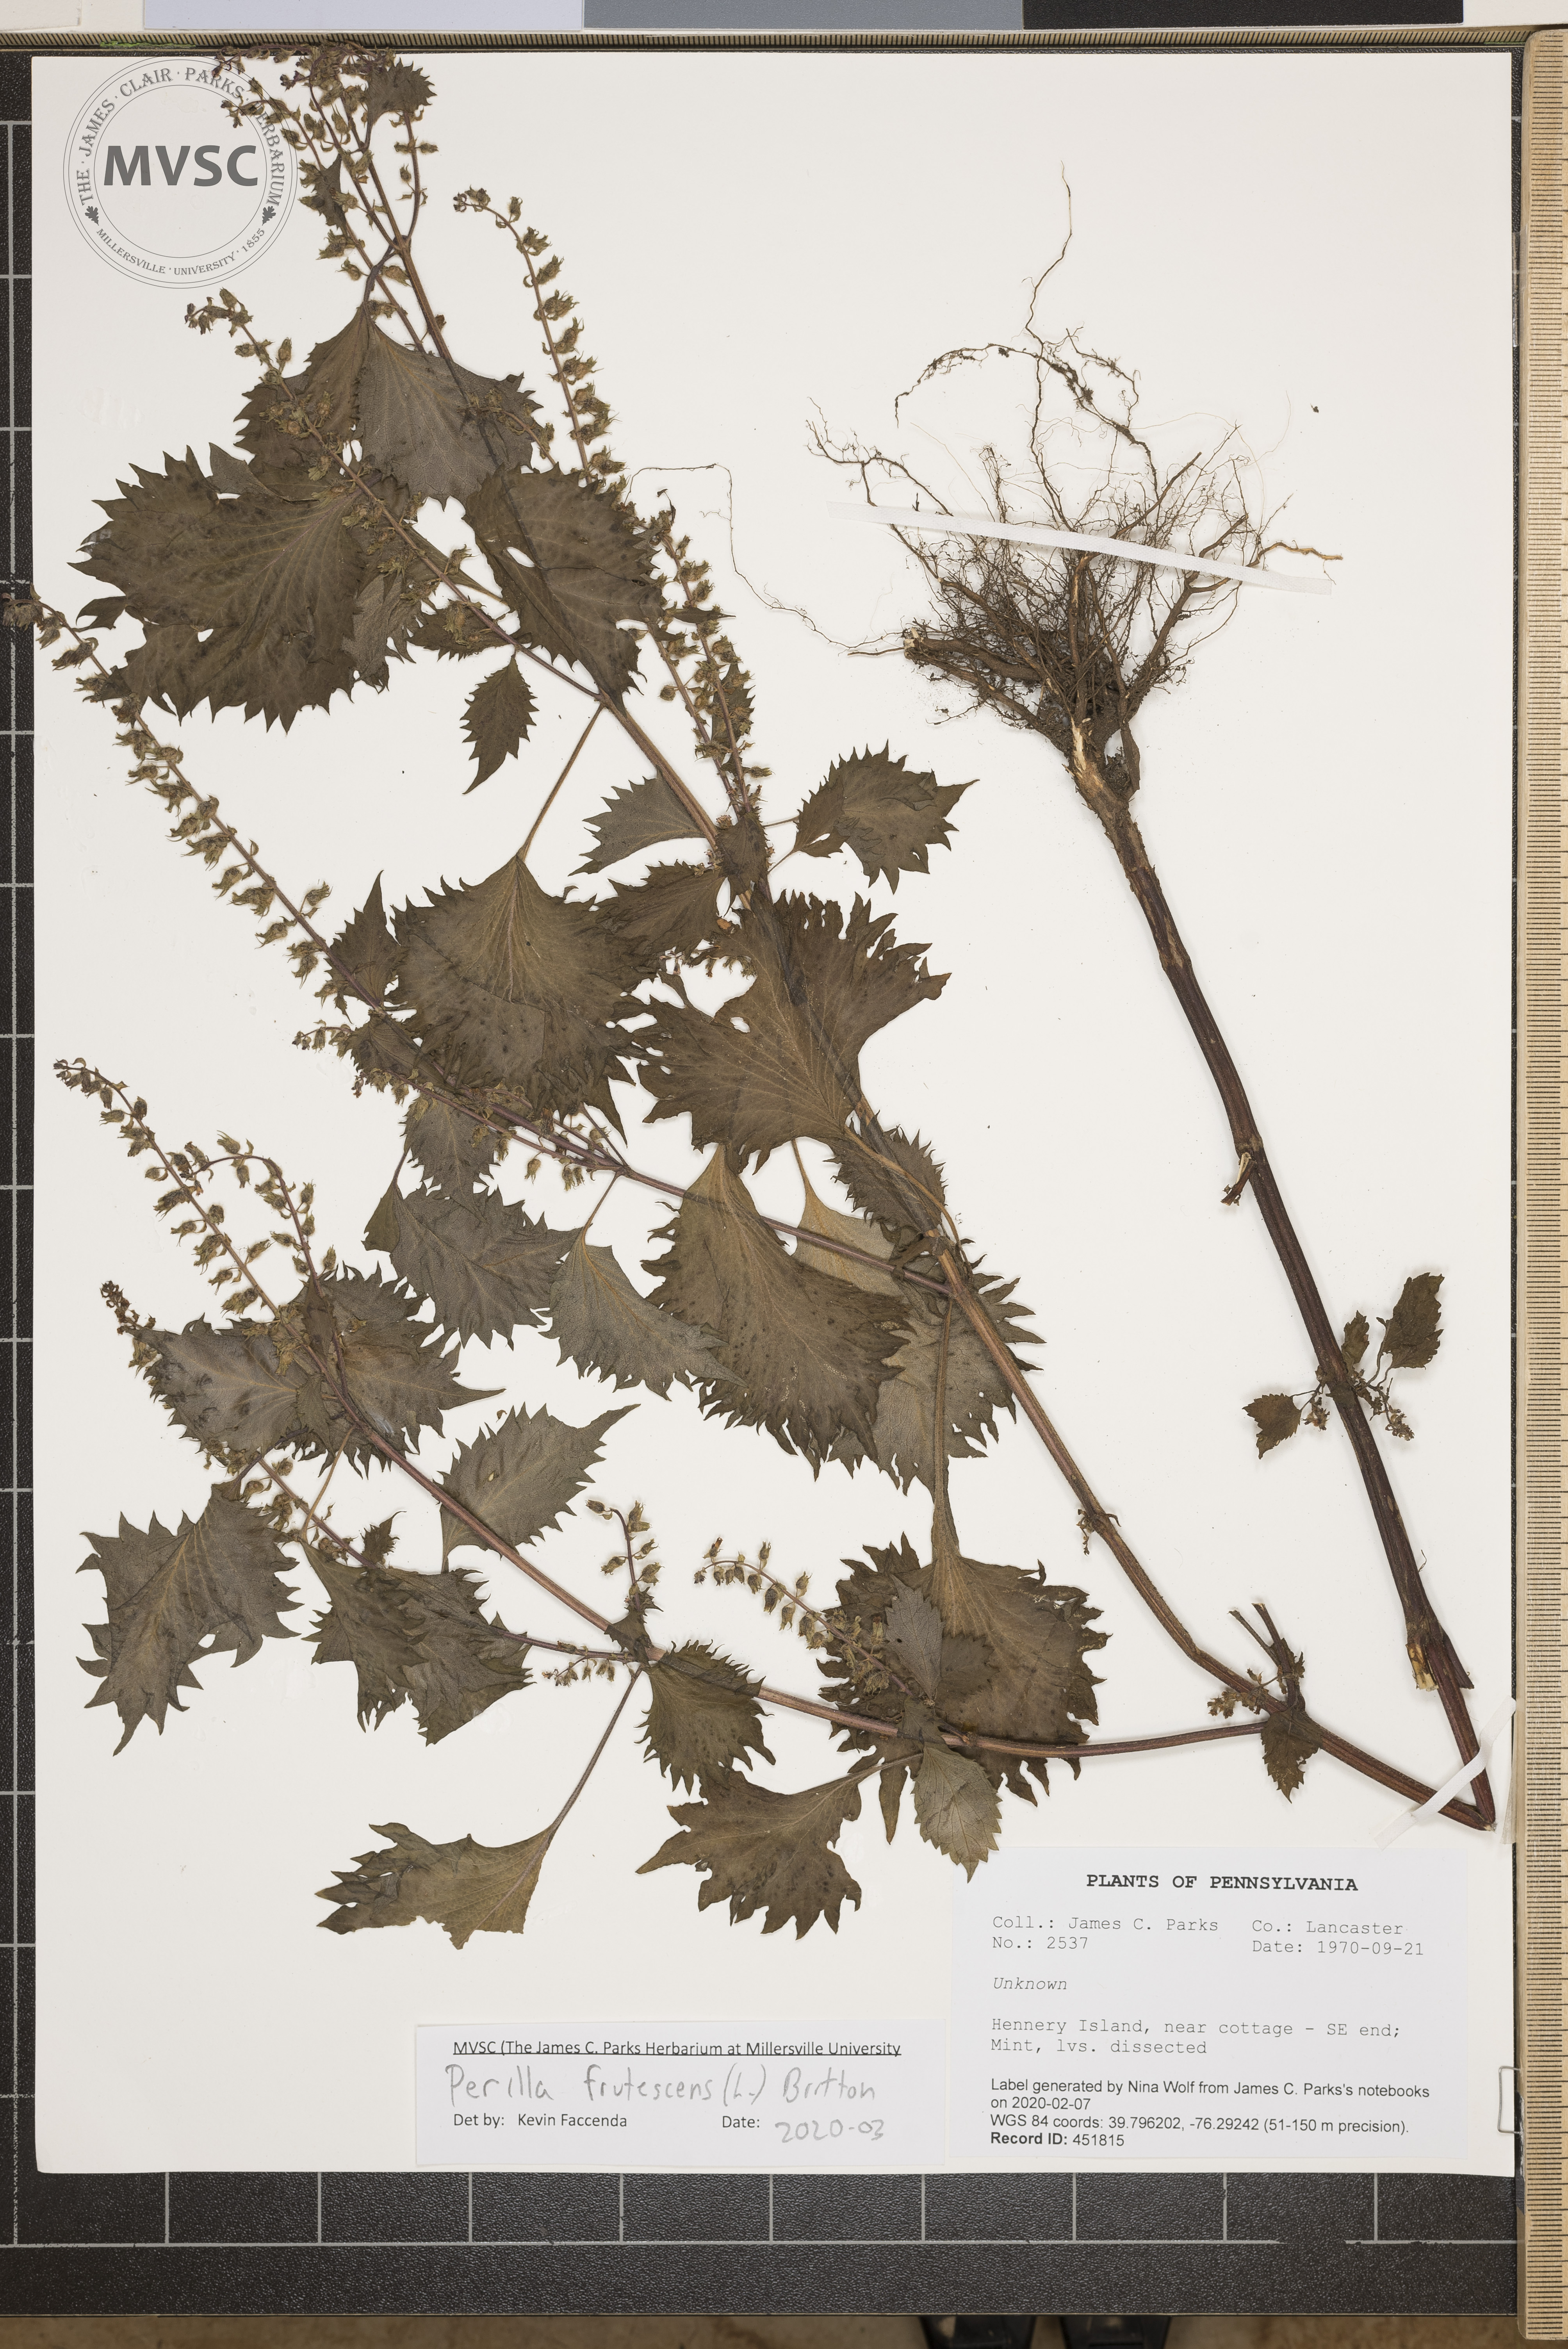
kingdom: Plantae
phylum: Tracheophyta
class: Magnoliopsida
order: Lamiales
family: Lamiaceae
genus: Perilla
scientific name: Perilla frutescens
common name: Perilla
